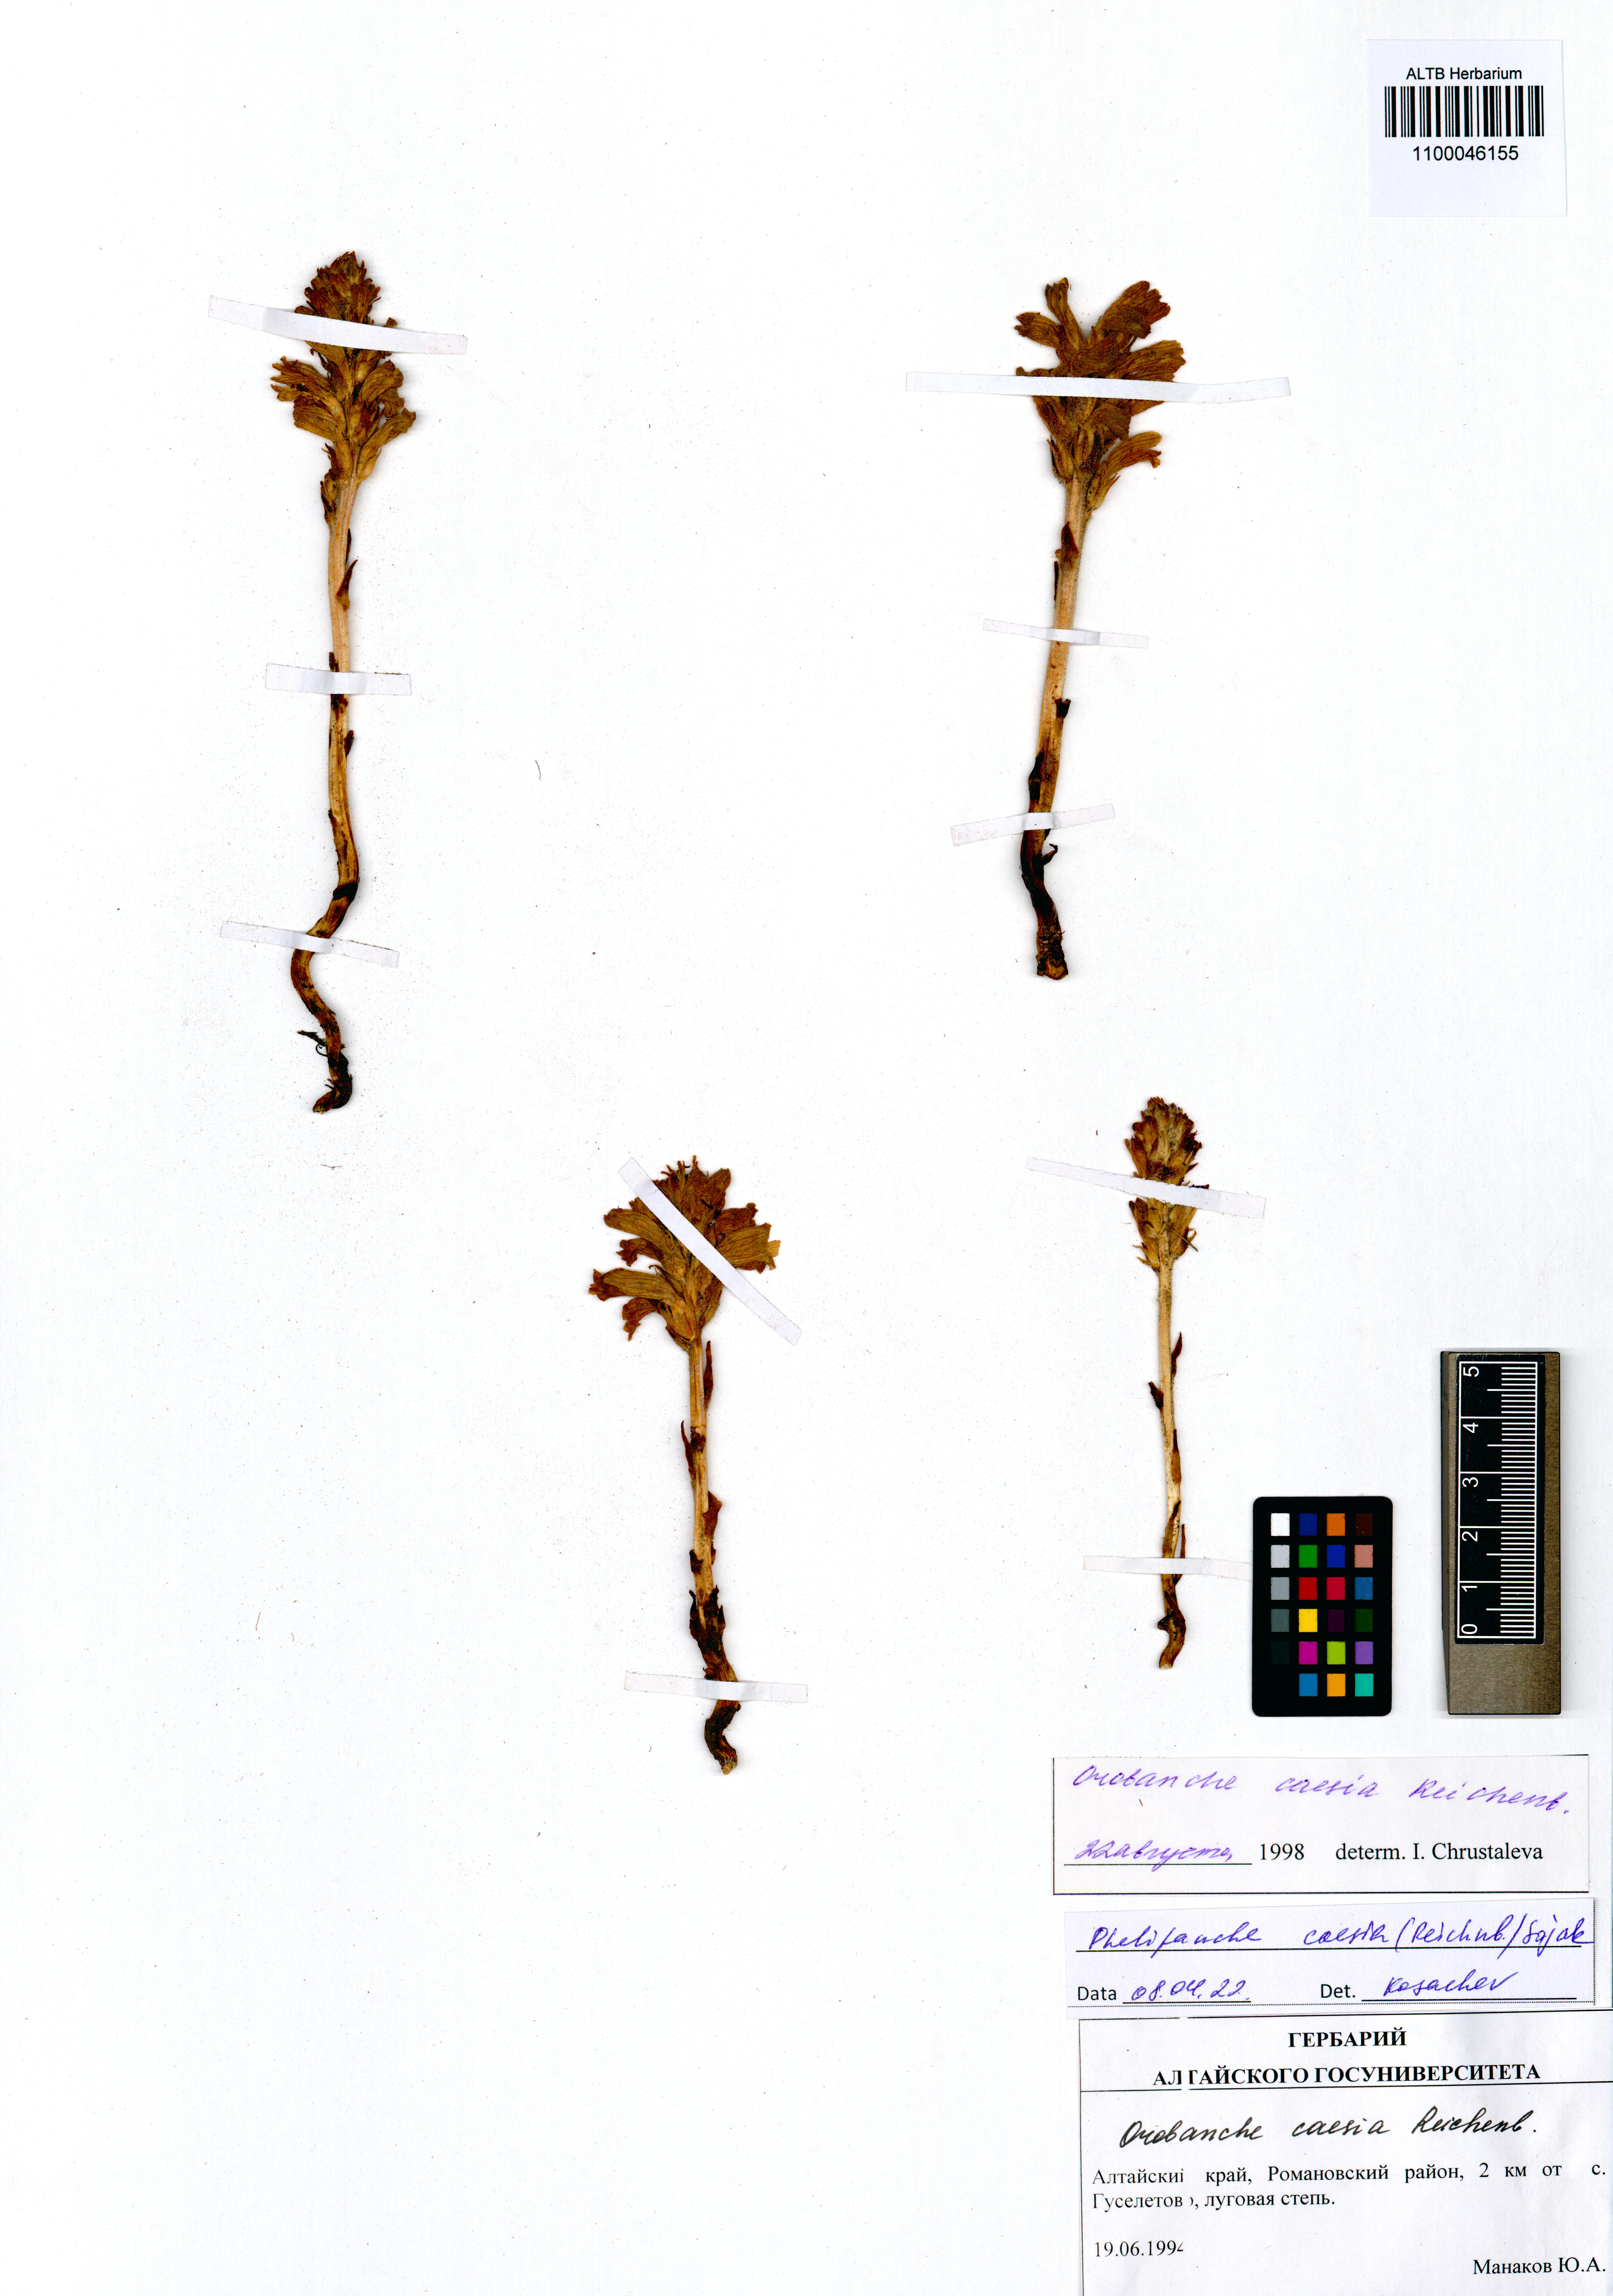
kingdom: Plantae
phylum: Tracheophyta
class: Magnoliopsida
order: Lamiales
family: Orobanchaceae
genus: Phelipanche
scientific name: Phelipanche caesia
